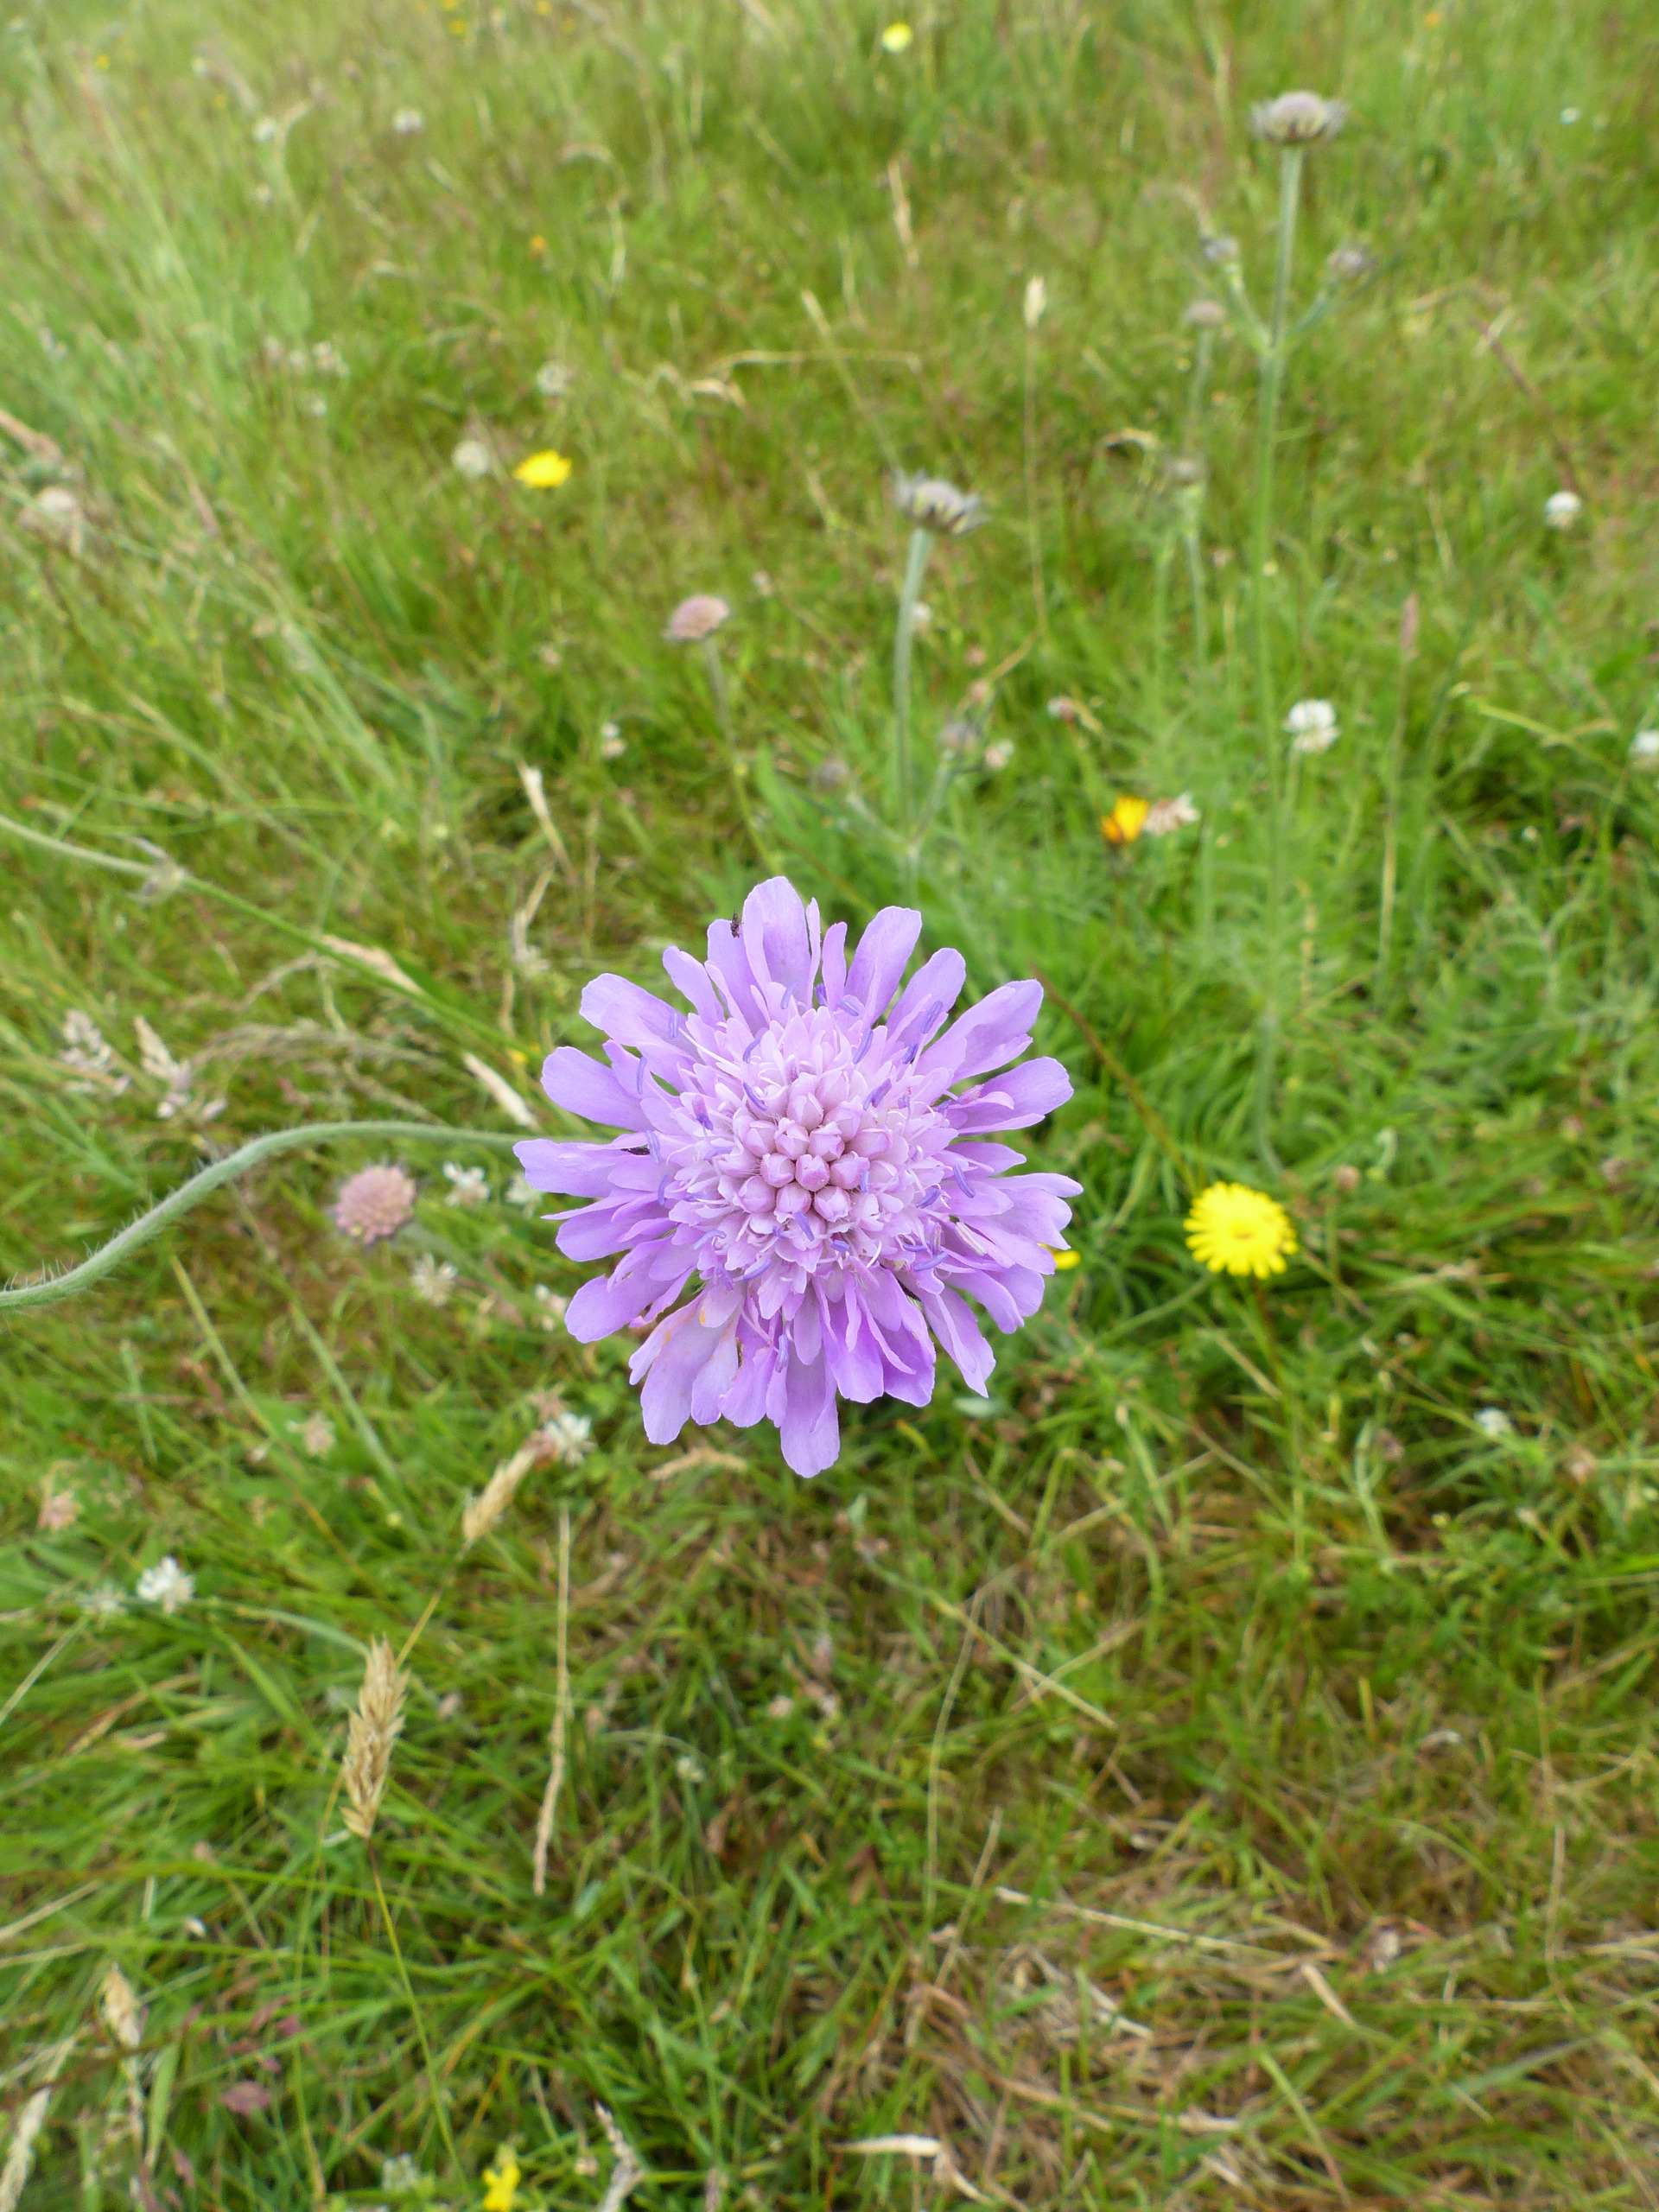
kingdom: Plantae
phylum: Tracheophyta
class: Magnoliopsida
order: Dipsacales
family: Caprifoliaceae
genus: Knautia
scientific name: Knautia arvensis
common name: Blåhat
